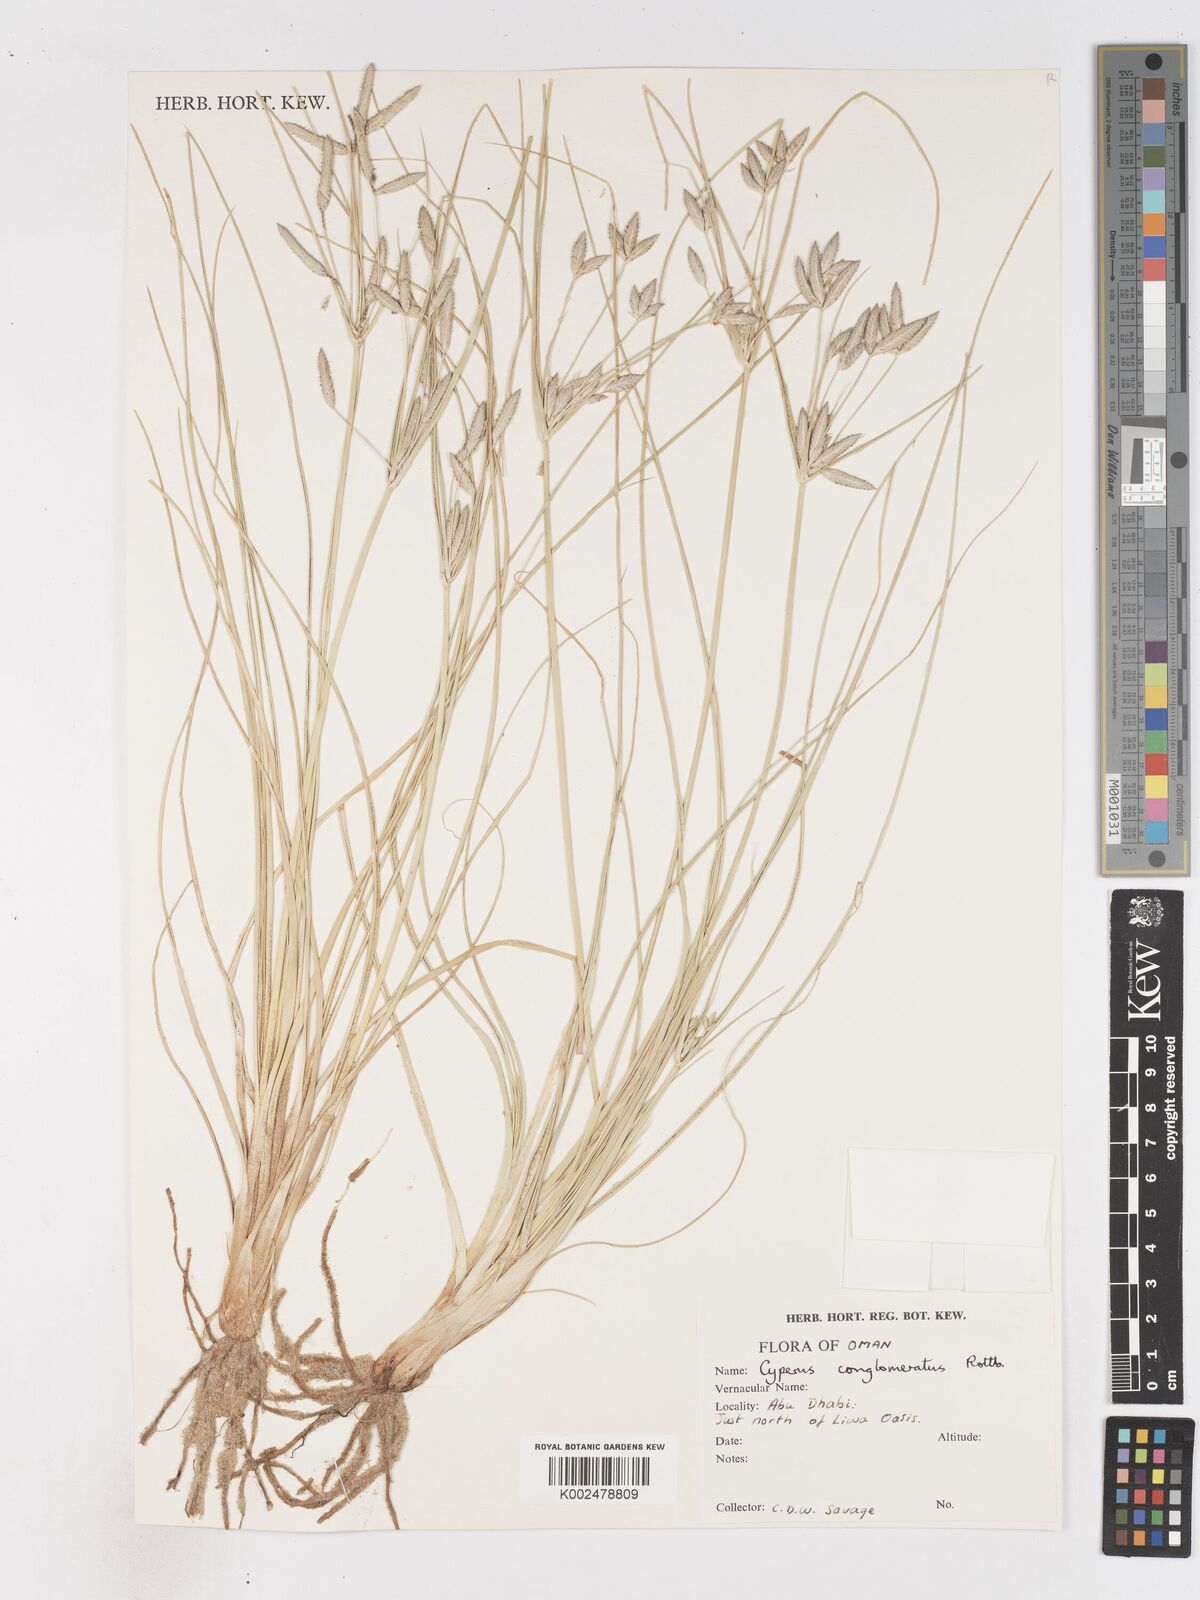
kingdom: Plantae
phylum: Tracheophyta
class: Liliopsida
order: Poales
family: Cyperaceae
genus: Cyperus
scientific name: Cyperus aucheri
